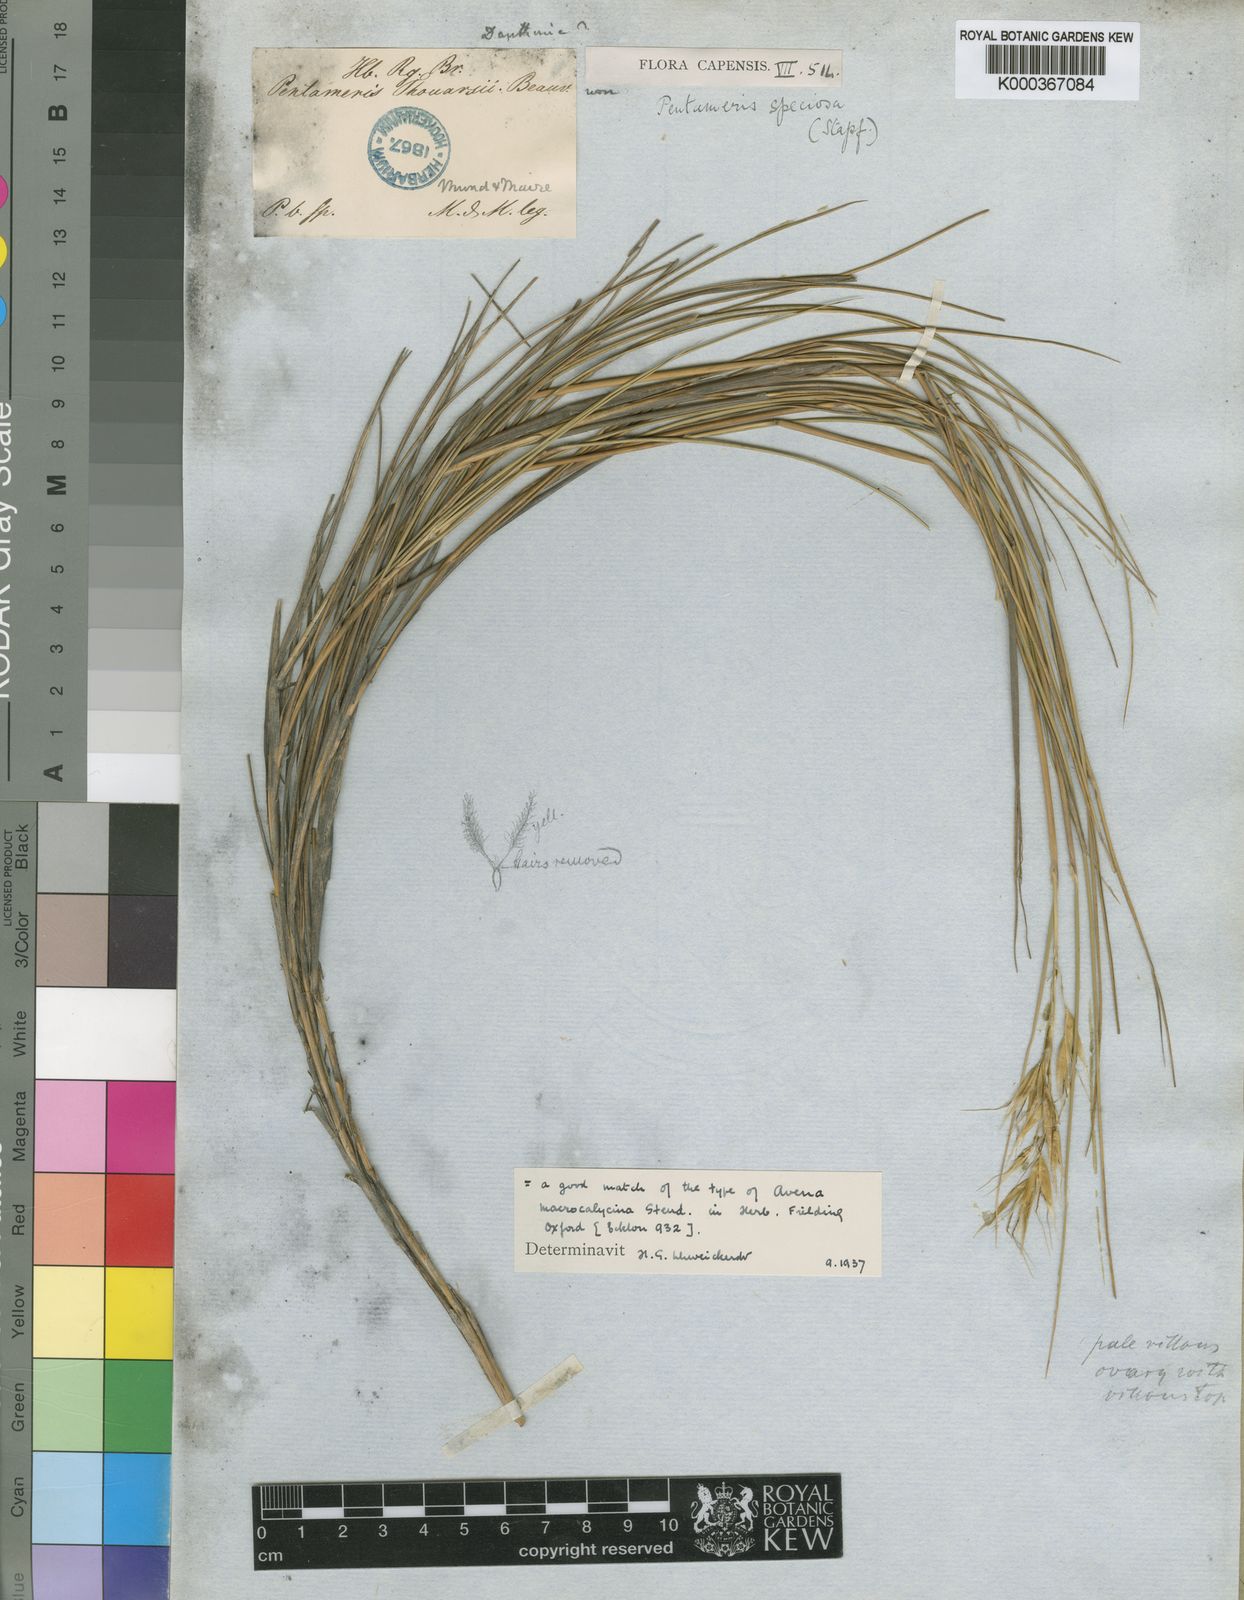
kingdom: Plantae
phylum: Tracheophyta
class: Liliopsida
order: Poales
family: Poaceae
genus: Pentameris
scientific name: Pentameris macrocalycina
